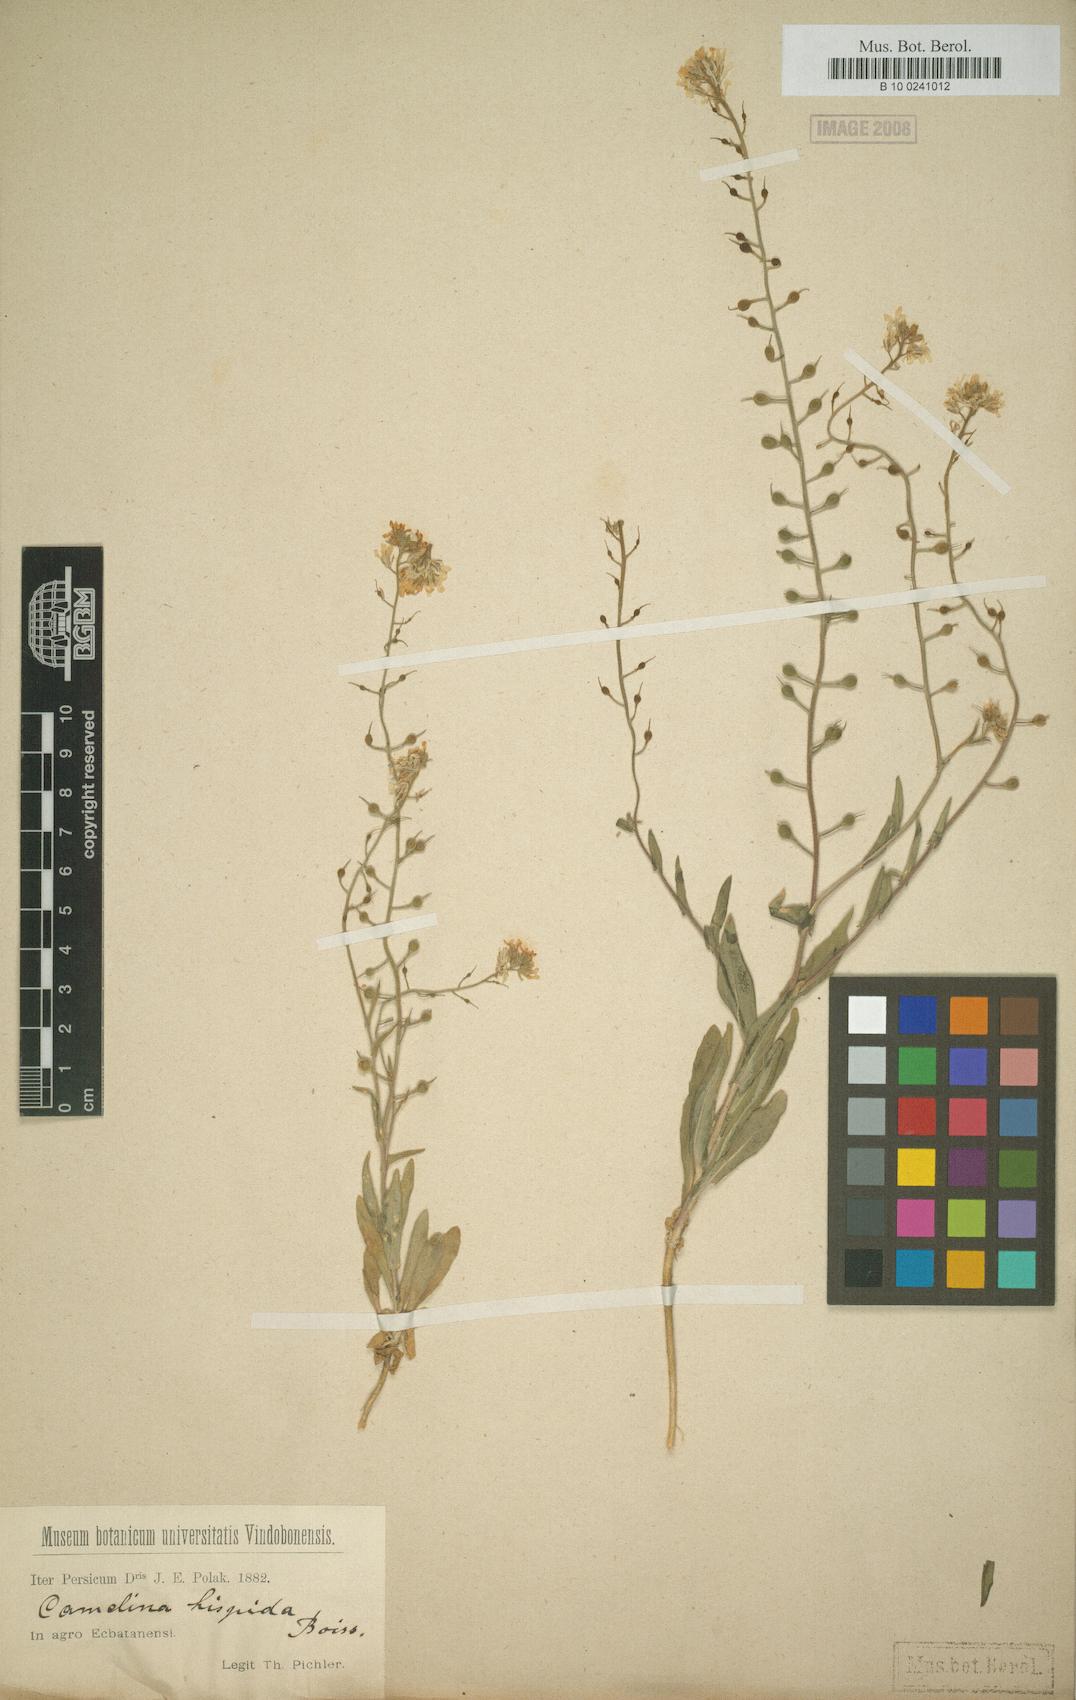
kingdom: Plantae
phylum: Tracheophyta
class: Magnoliopsida
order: Brassicales
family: Brassicaceae
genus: Camelina
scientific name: Camelina hispida
